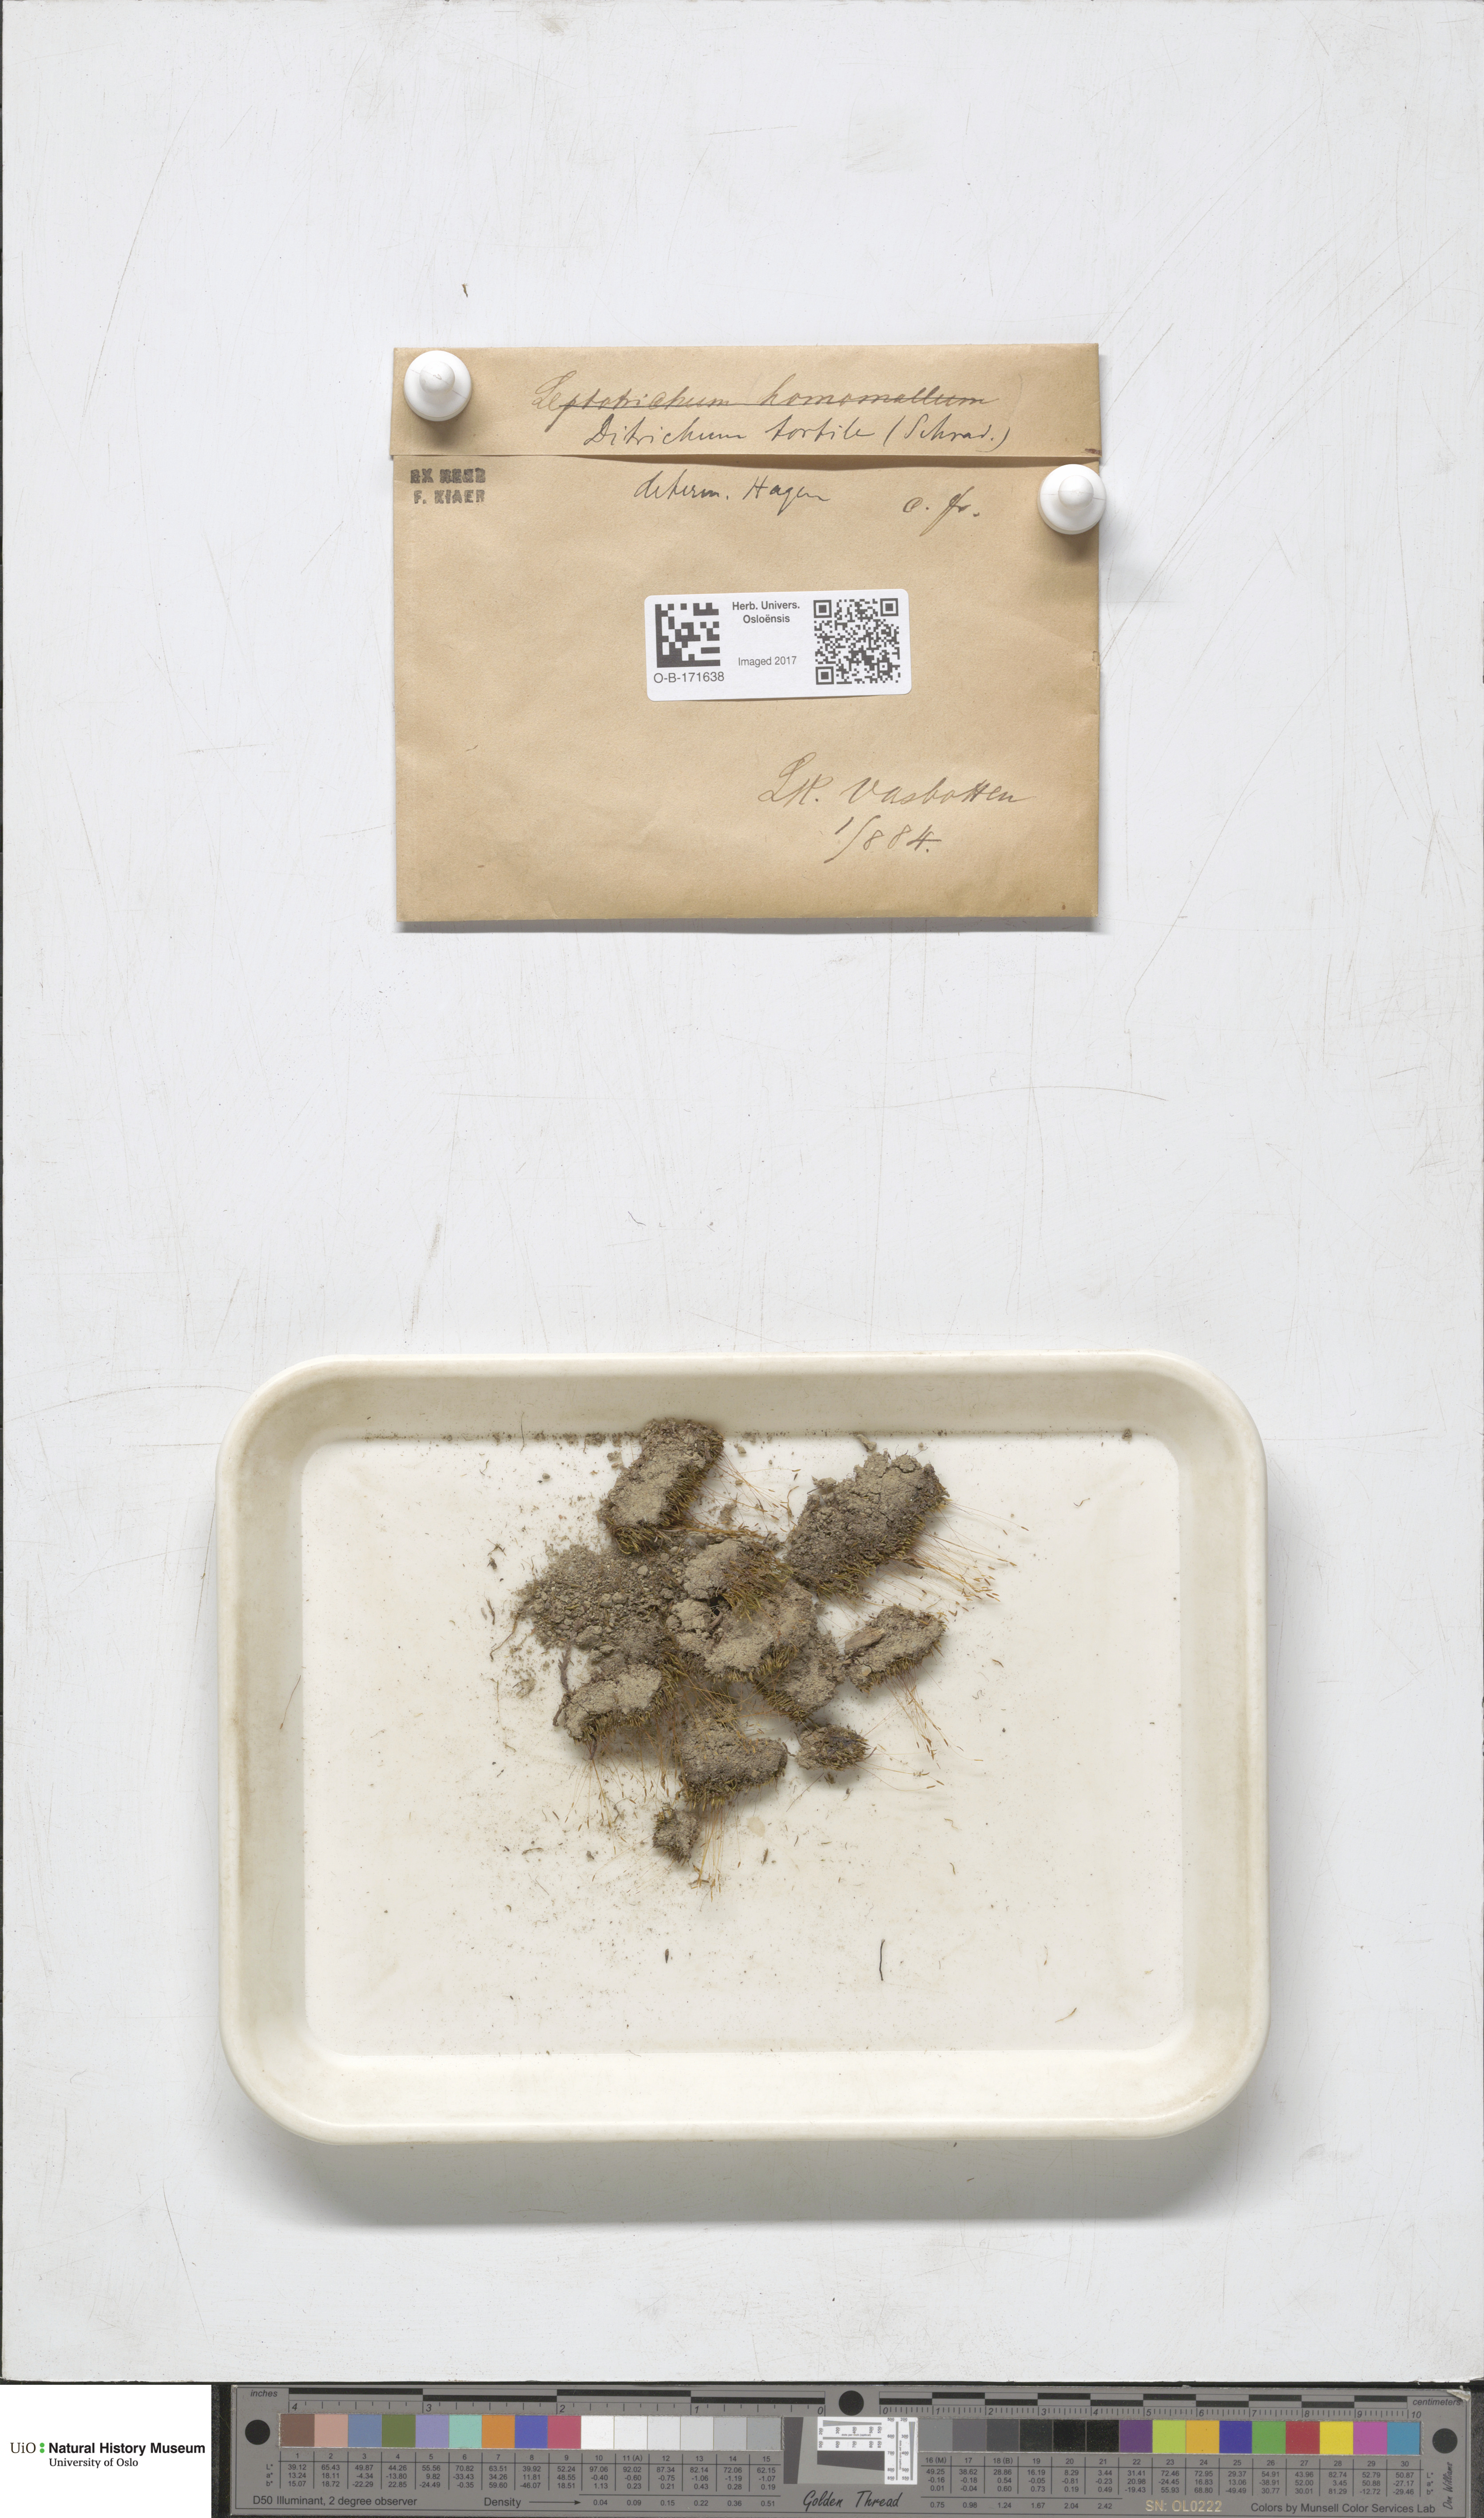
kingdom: Plantae
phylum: Bryophyta
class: Bryopsida
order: Dicranales
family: Ditrichaceae
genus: Ditrichum
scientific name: Ditrichum pusillum
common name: Brown cow-hair moss
